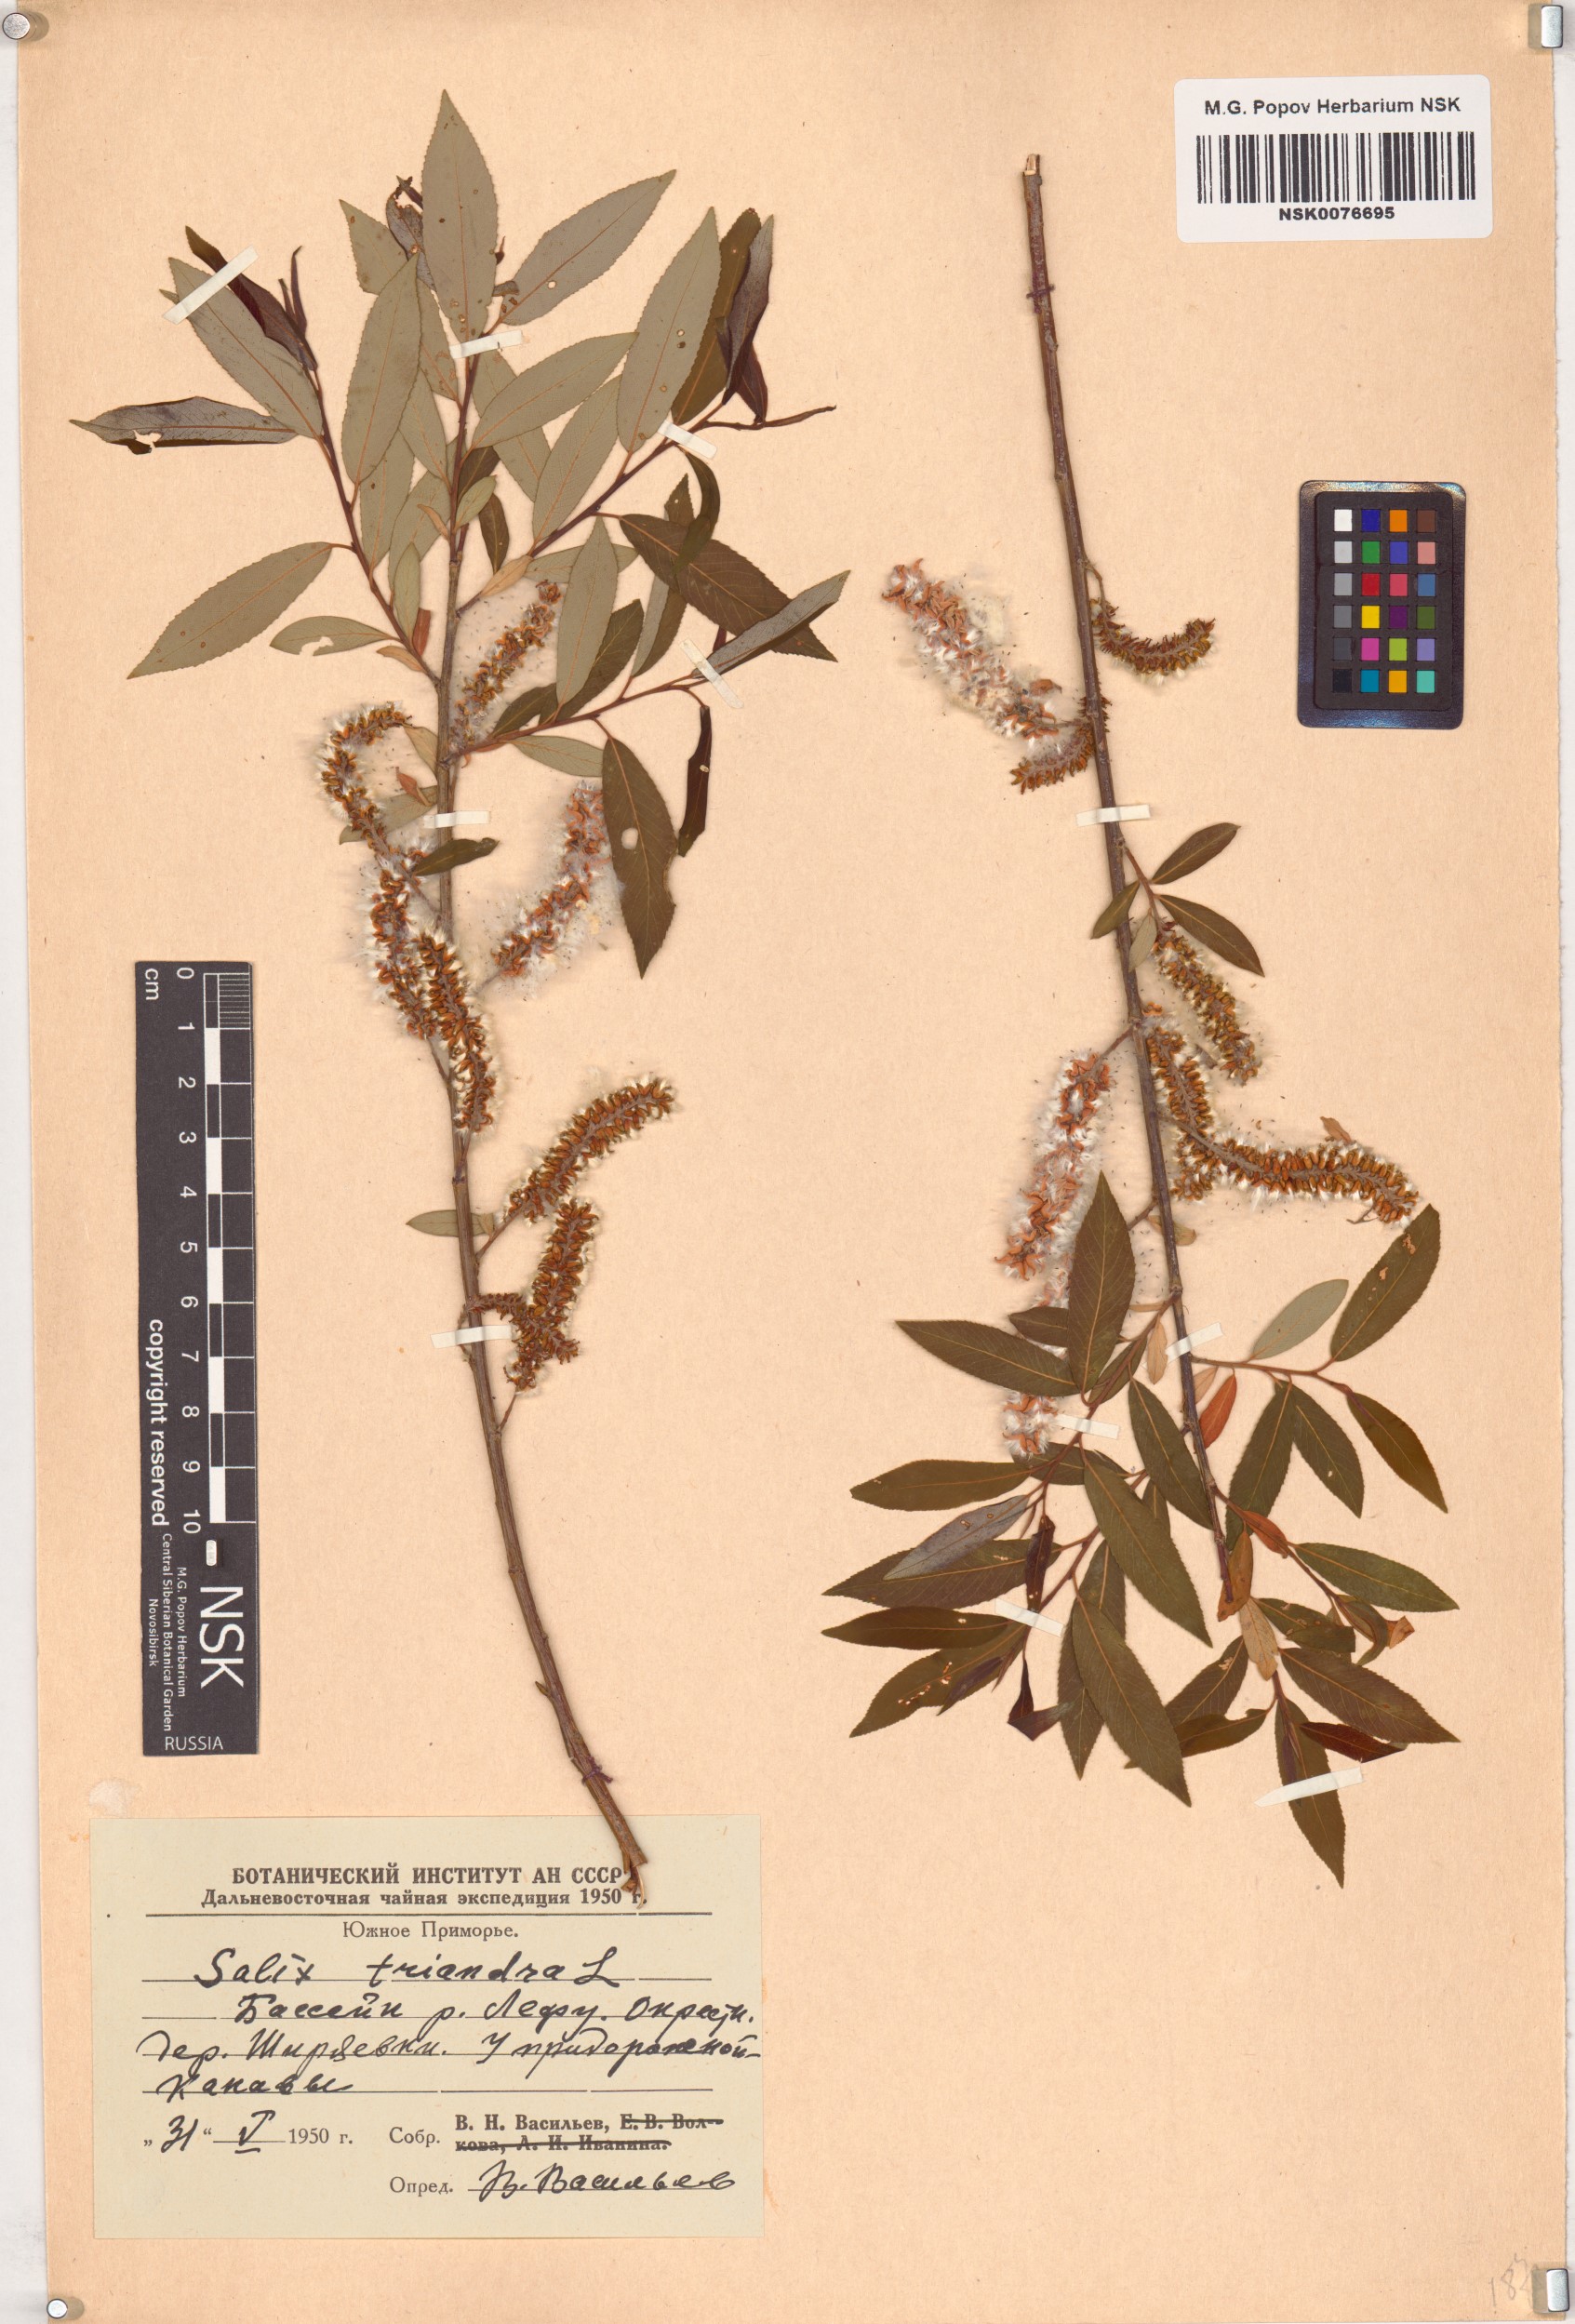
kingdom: Plantae
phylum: Tracheophyta
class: Magnoliopsida
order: Malpighiales
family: Salicaceae
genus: Salix
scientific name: Salix triandra
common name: Almond willow
